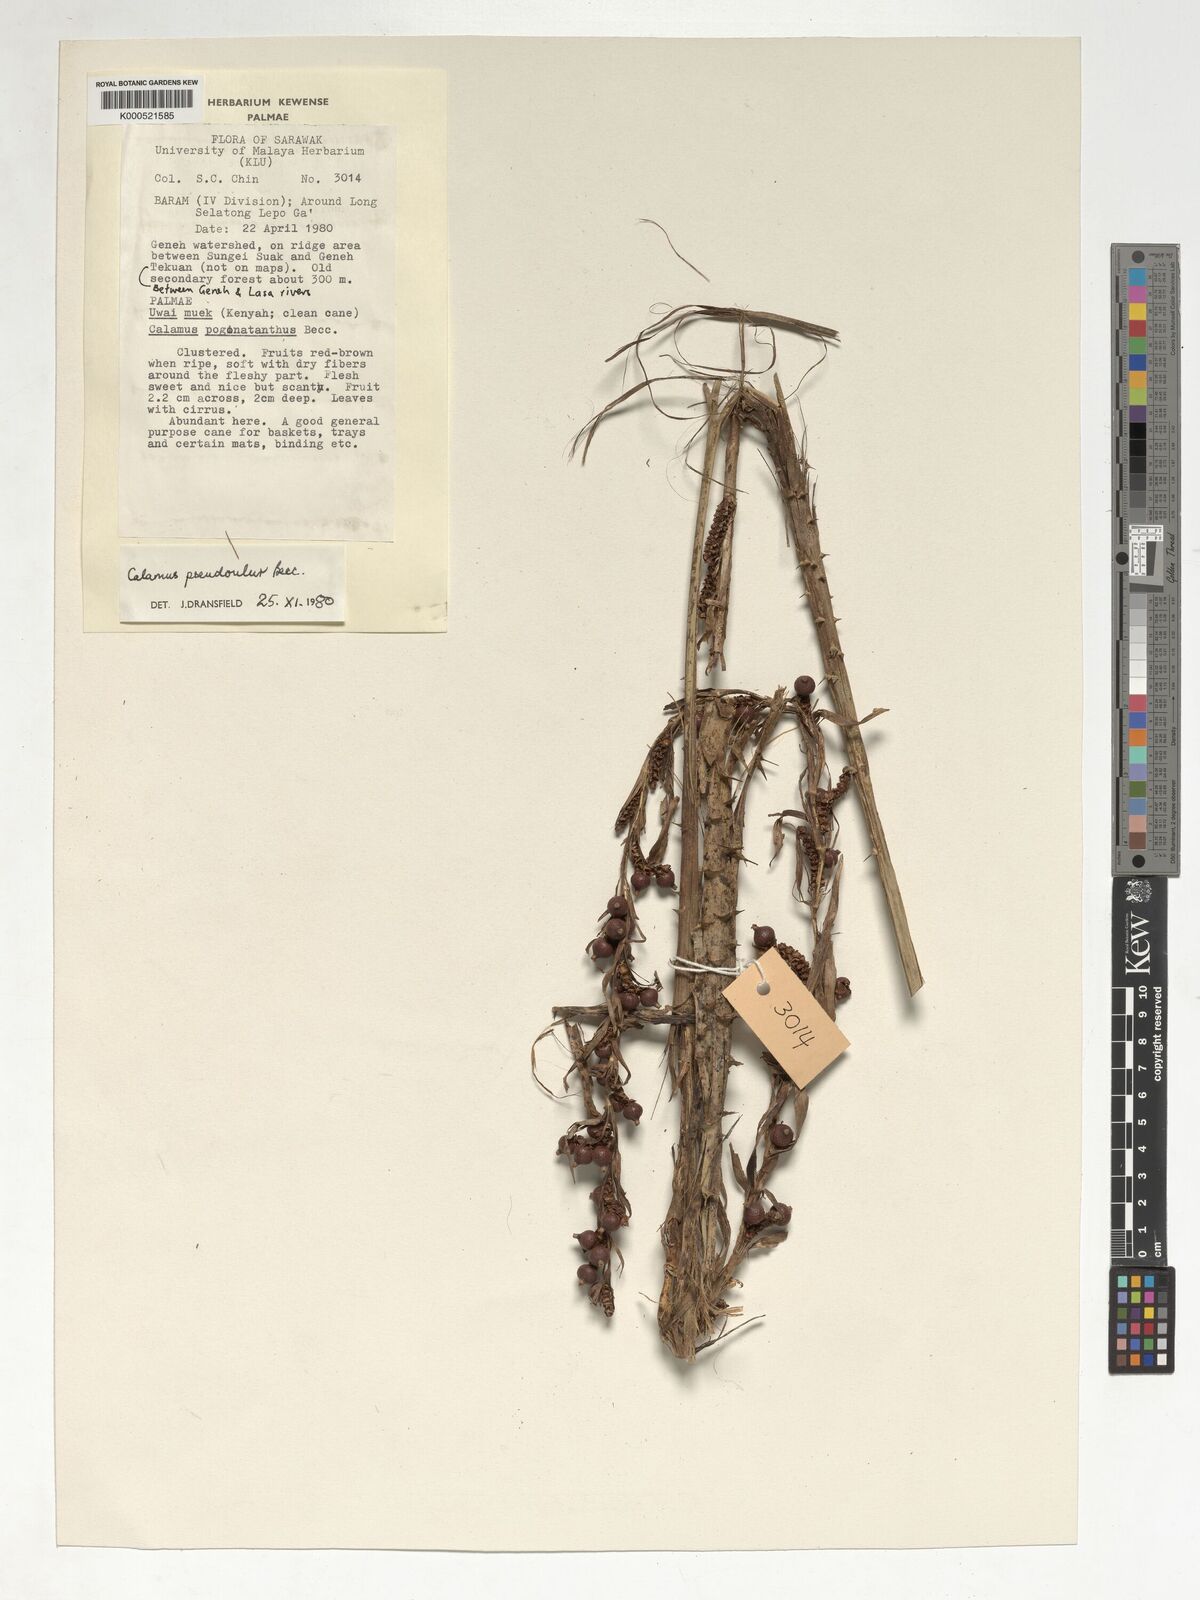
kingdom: Plantae
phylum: Tracheophyta
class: Liliopsida
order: Arecales
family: Arecaceae
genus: Calamus
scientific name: Calamus erioacanthus
